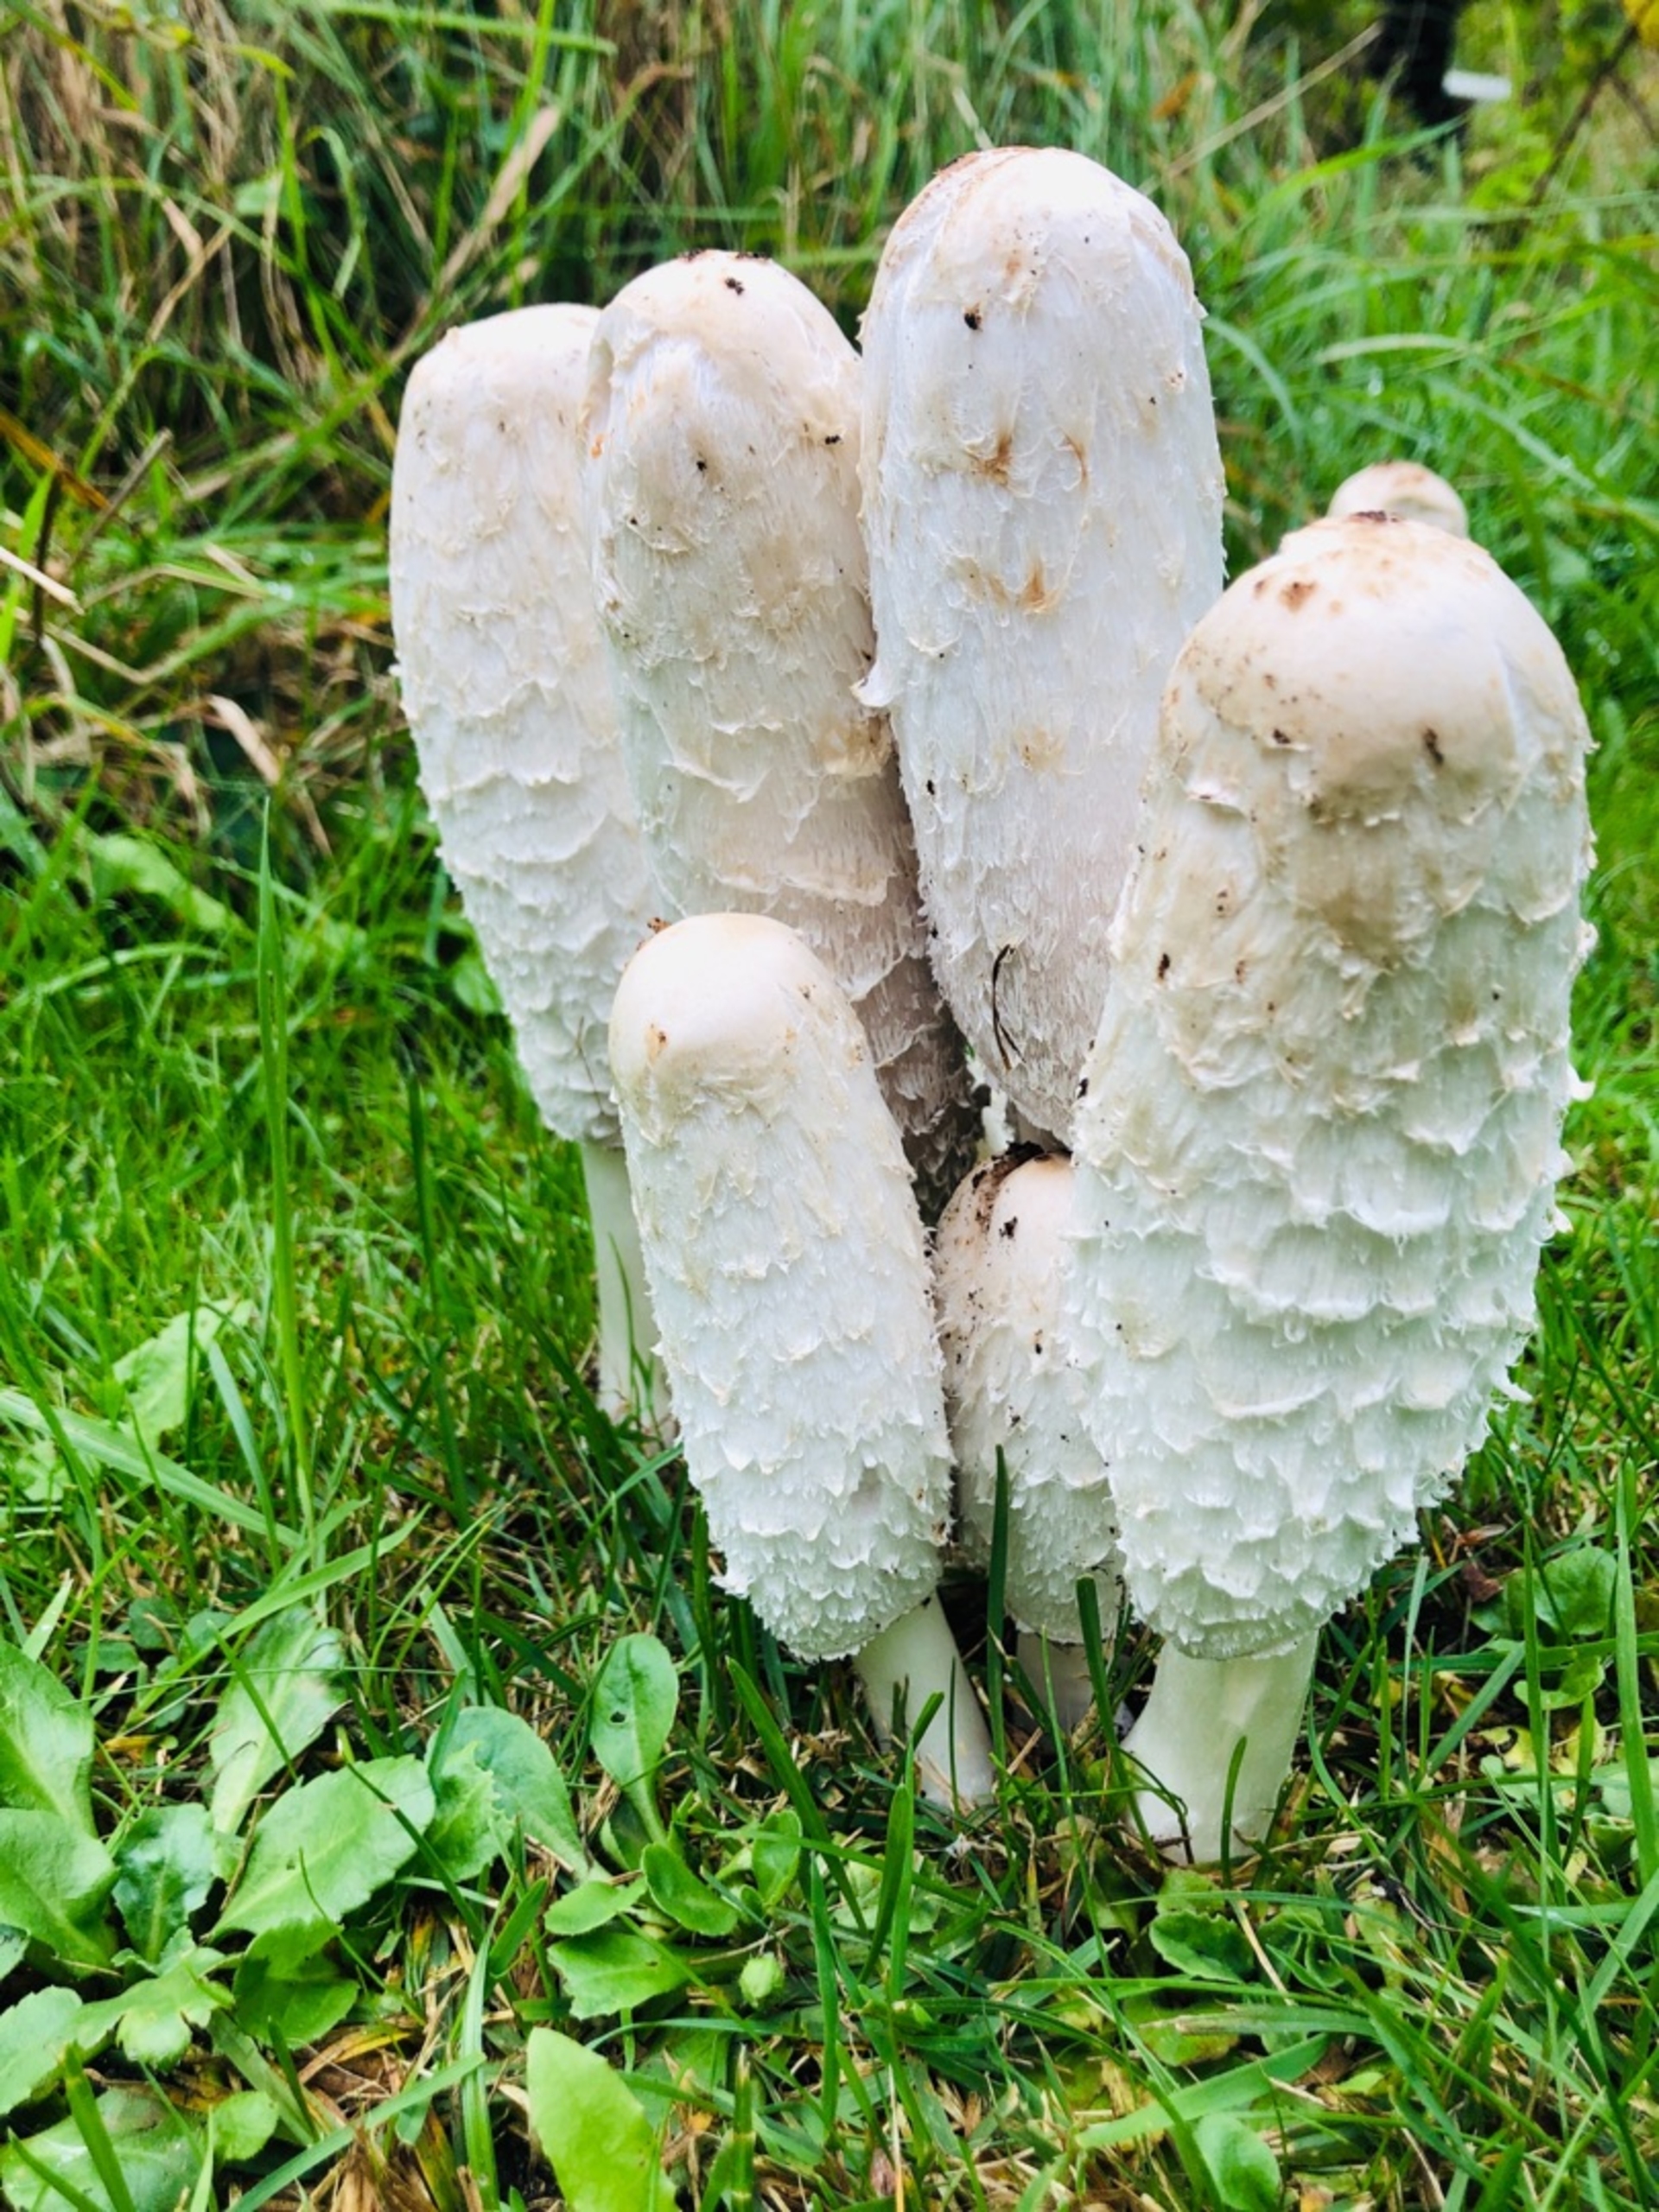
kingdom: Fungi
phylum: Basidiomycota
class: Agaricomycetes
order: Agaricales
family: Agaricaceae
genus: Coprinus
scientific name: Coprinus comatus
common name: Stor parykhat
